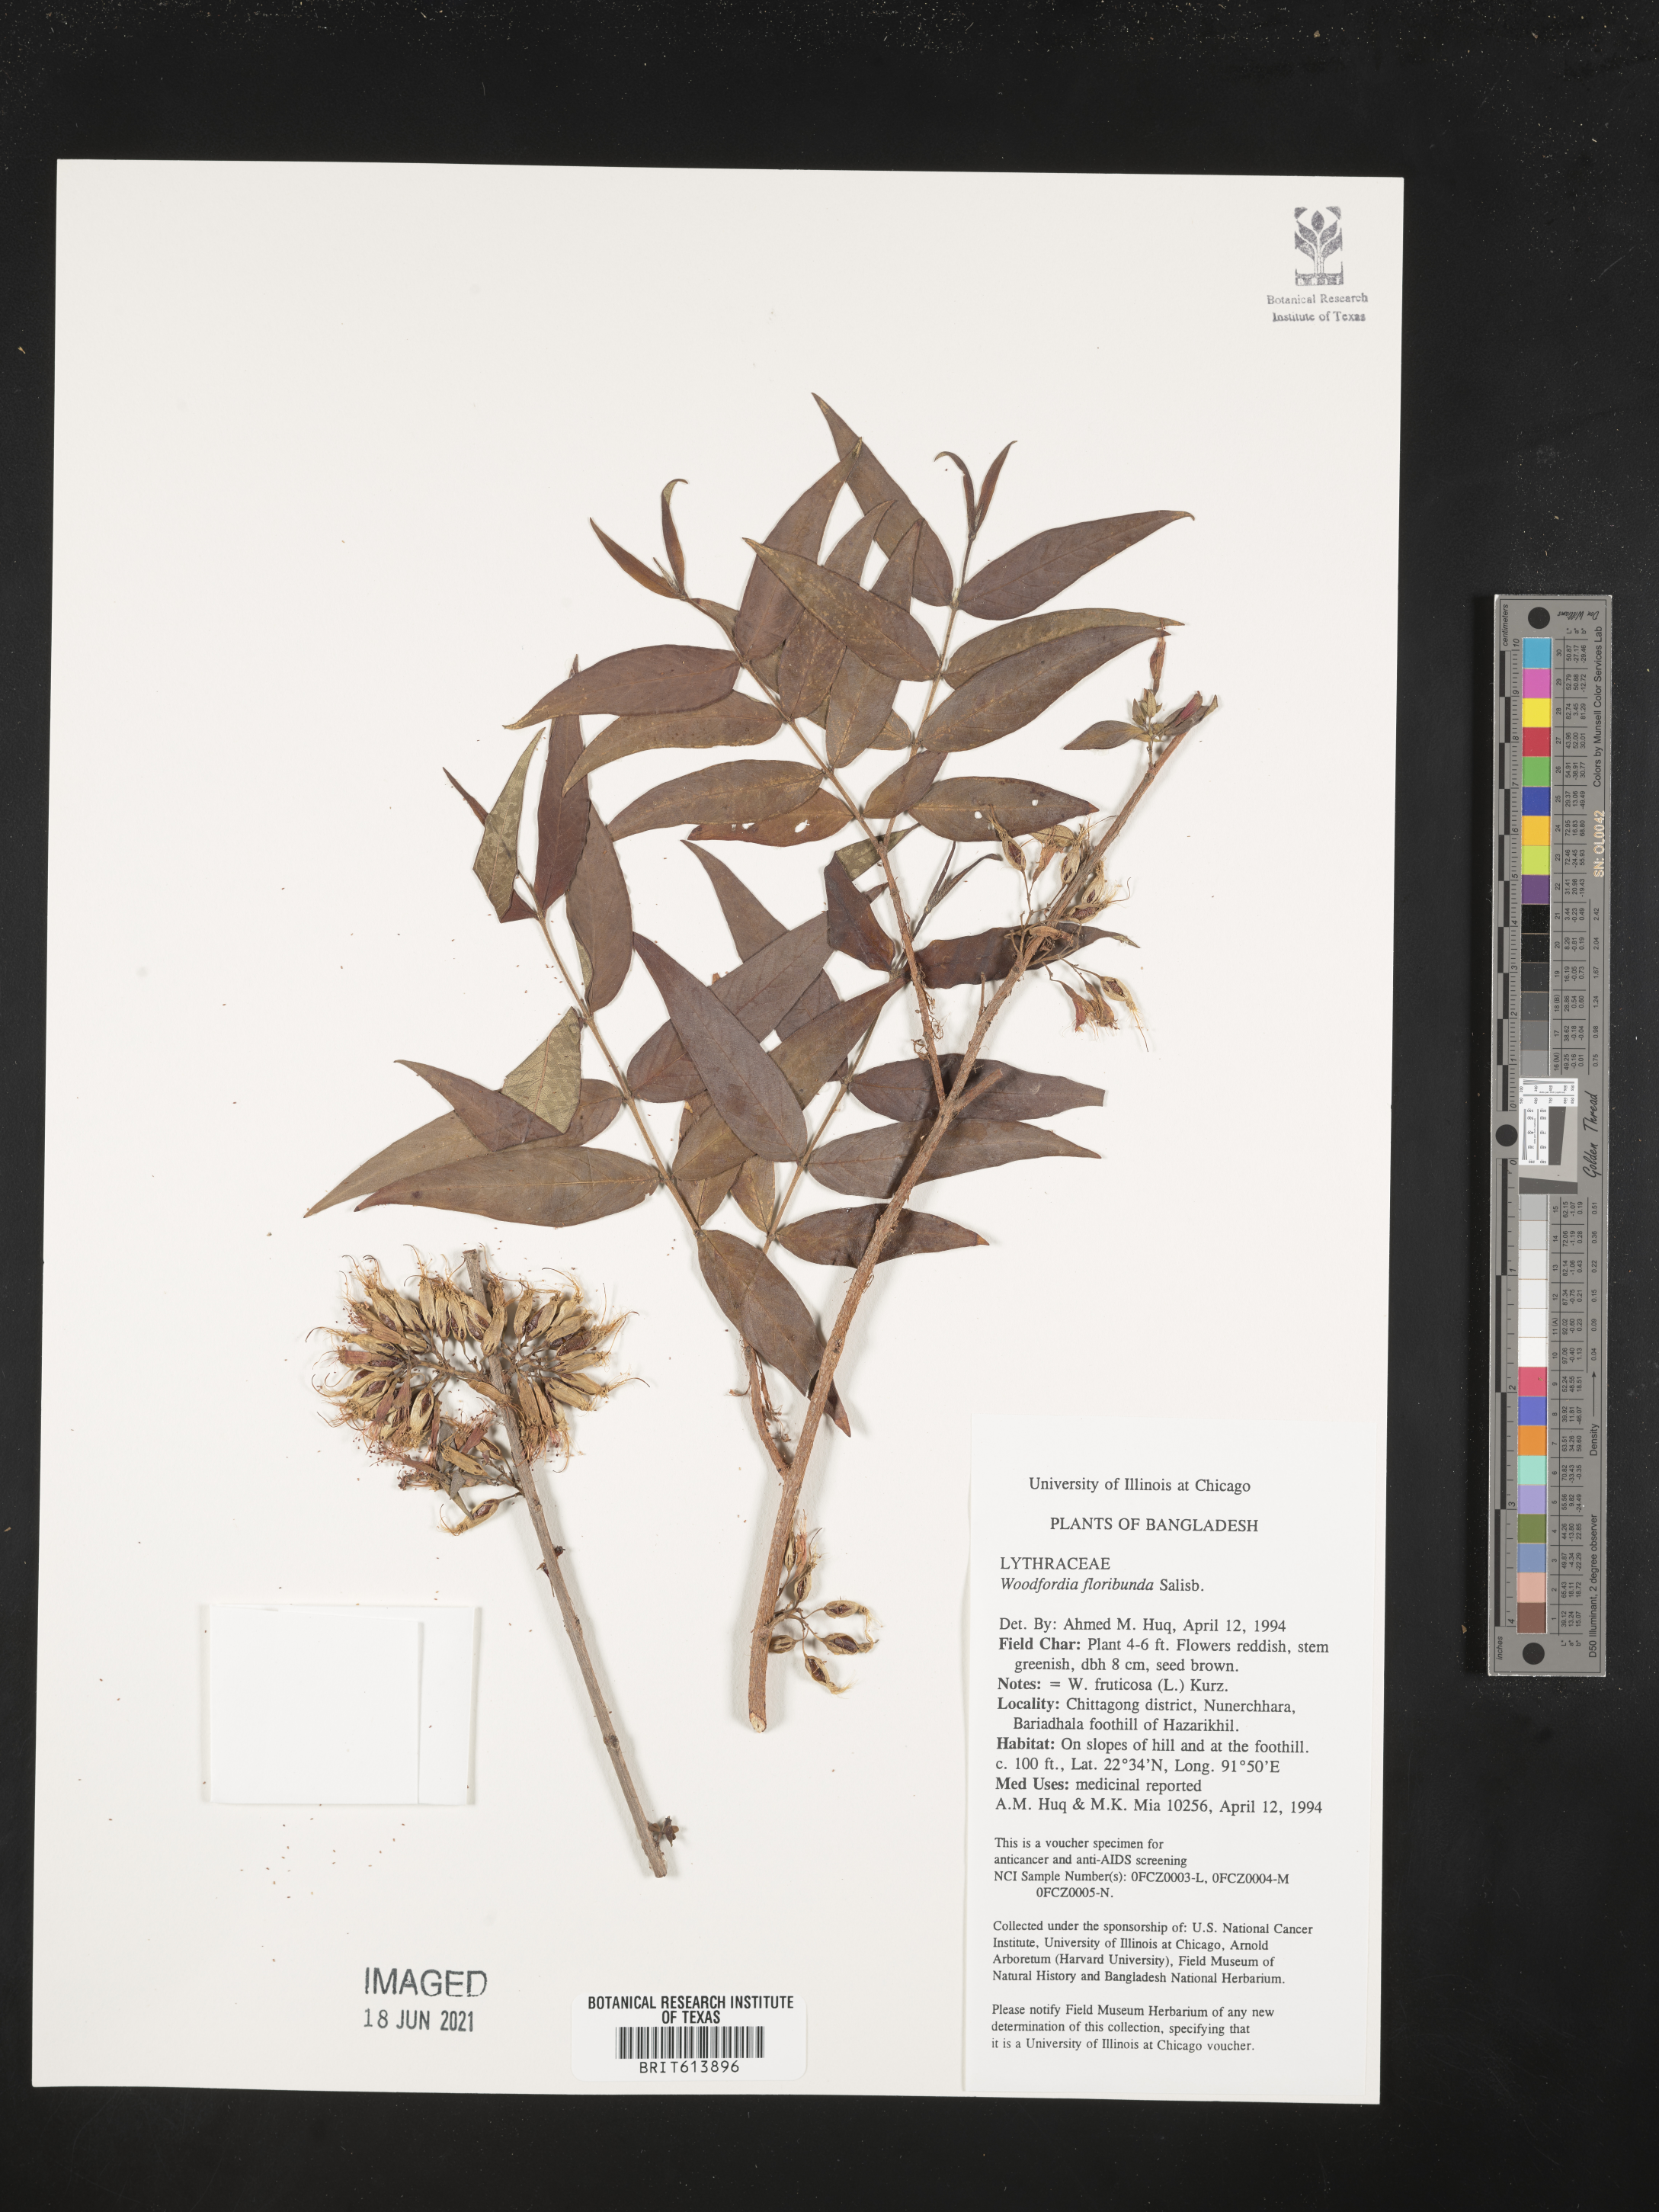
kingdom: Plantae
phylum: Tracheophyta
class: Magnoliopsida
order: Myrtales
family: Lythraceae
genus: Woodfordia
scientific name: Woodfordia fruticosa
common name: Shiranji-tea
